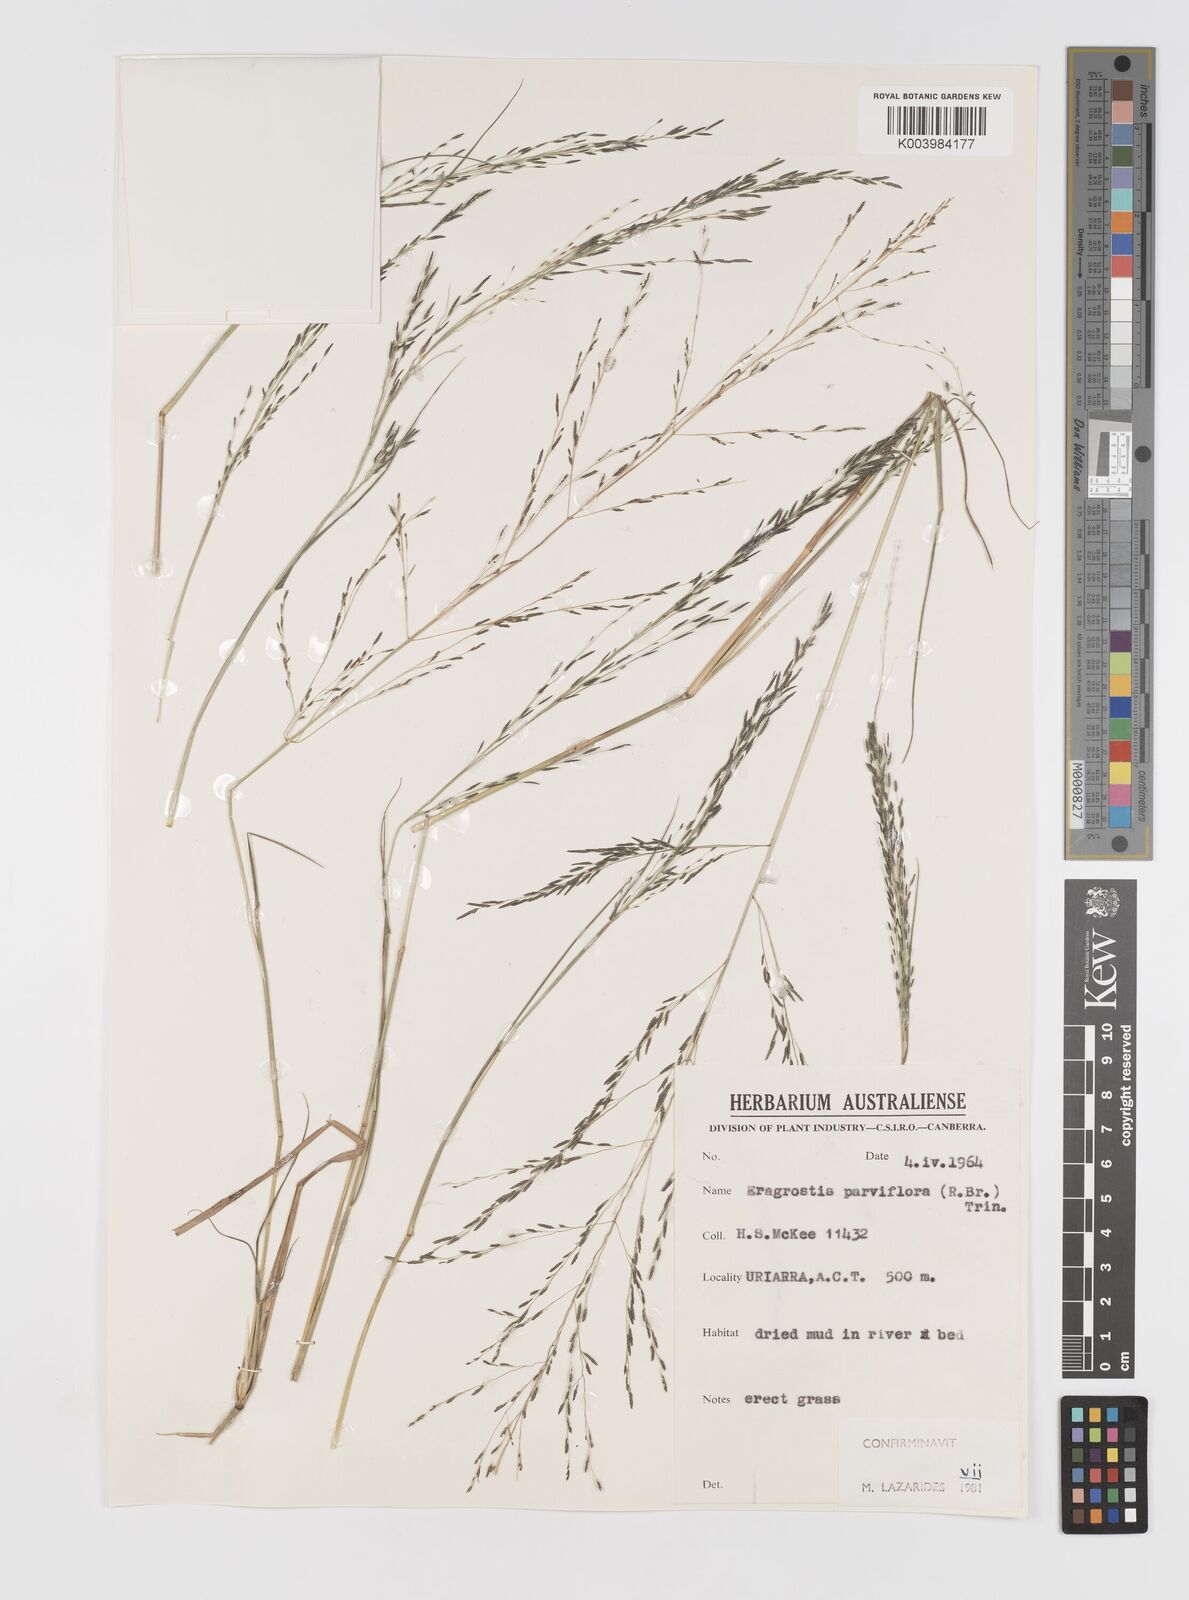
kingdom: Plantae
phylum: Tracheophyta
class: Liliopsida
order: Poales
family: Poaceae
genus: Eragrostis
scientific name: Eragrostis parviflora
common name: Weeping love-grass
